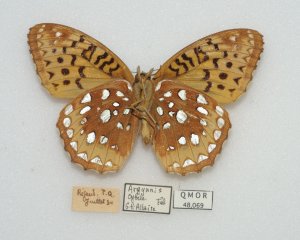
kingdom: Animalia
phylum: Arthropoda
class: Insecta
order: Lepidoptera
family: Nymphalidae
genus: Speyeria
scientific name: Speyeria cybele
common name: Great Spangled Fritillary
